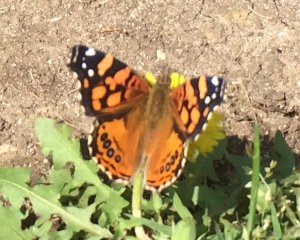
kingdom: Animalia
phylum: Arthropoda
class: Insecta
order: Lepidoptera
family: Nymphalidae
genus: Vanessa
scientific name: Vanessa annabella
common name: West Coast Lady
